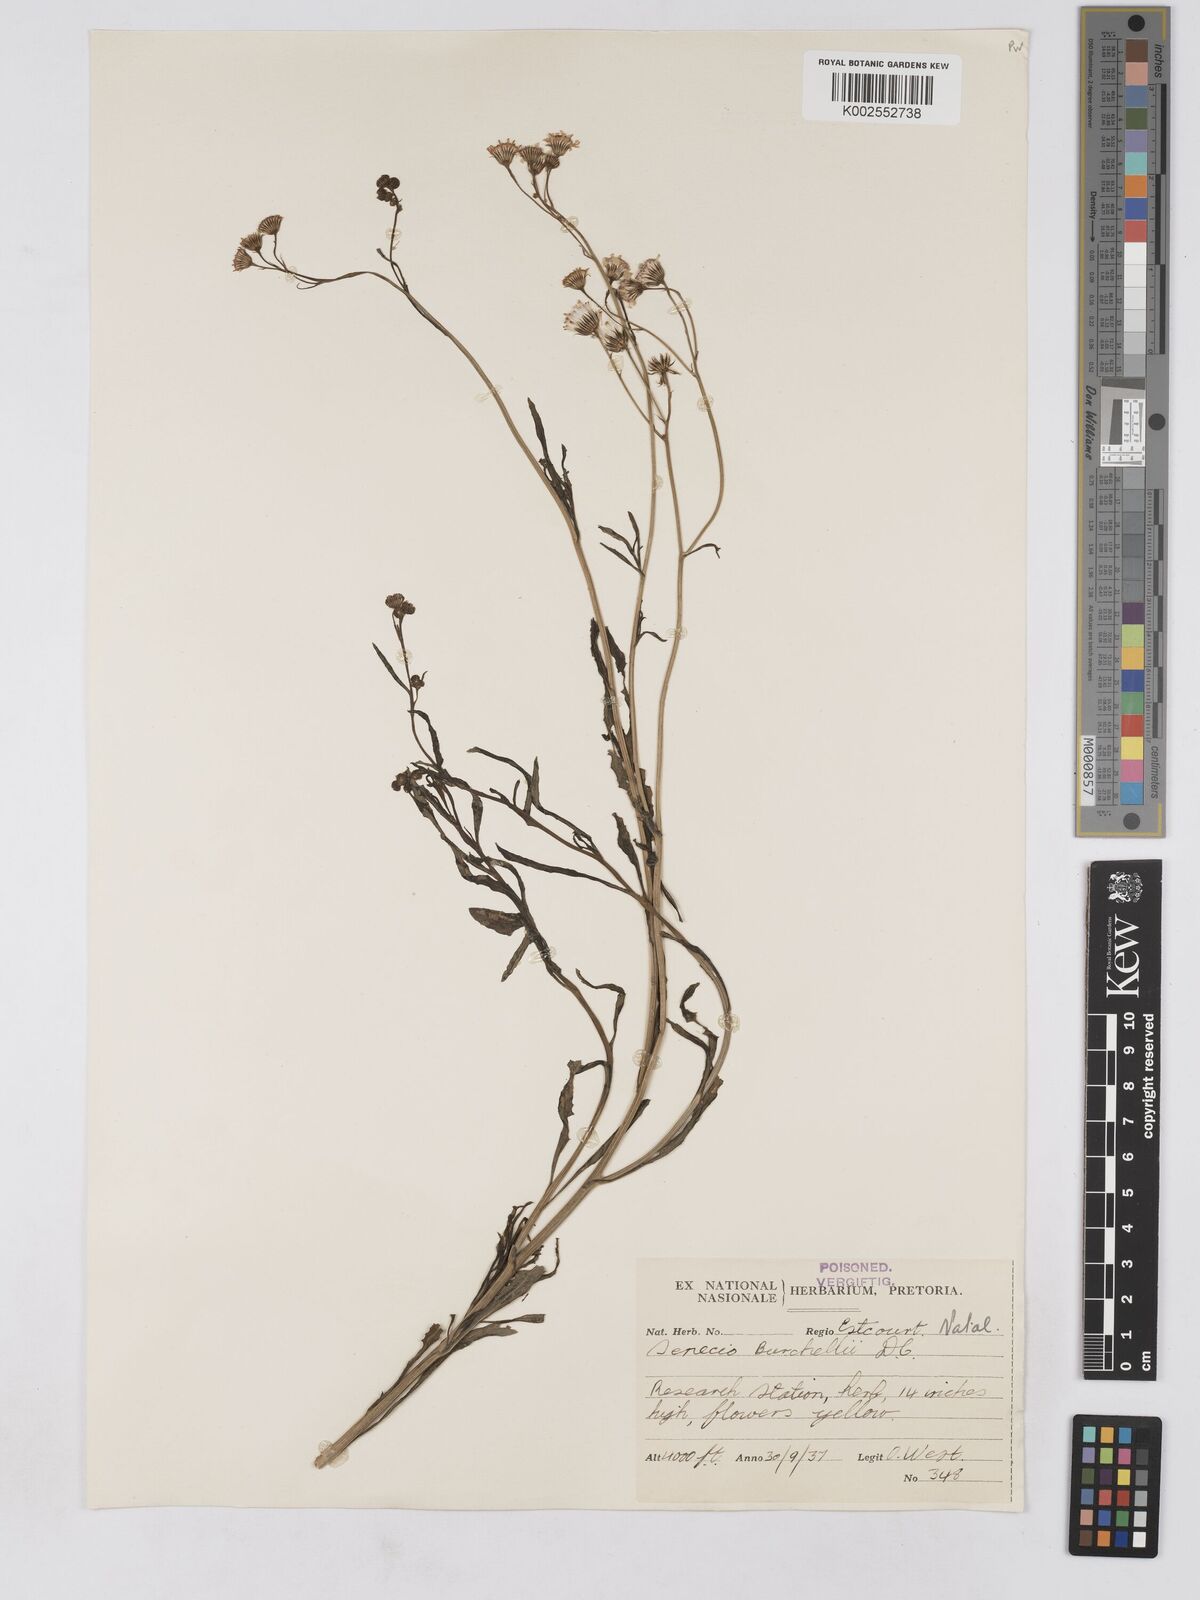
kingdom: Plantae
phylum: Tracheophyta
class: Magnoliopsida
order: Asterales
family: Asteraceae
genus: Senecio
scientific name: Senecio madagascariensis
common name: Madagascar ragwort
